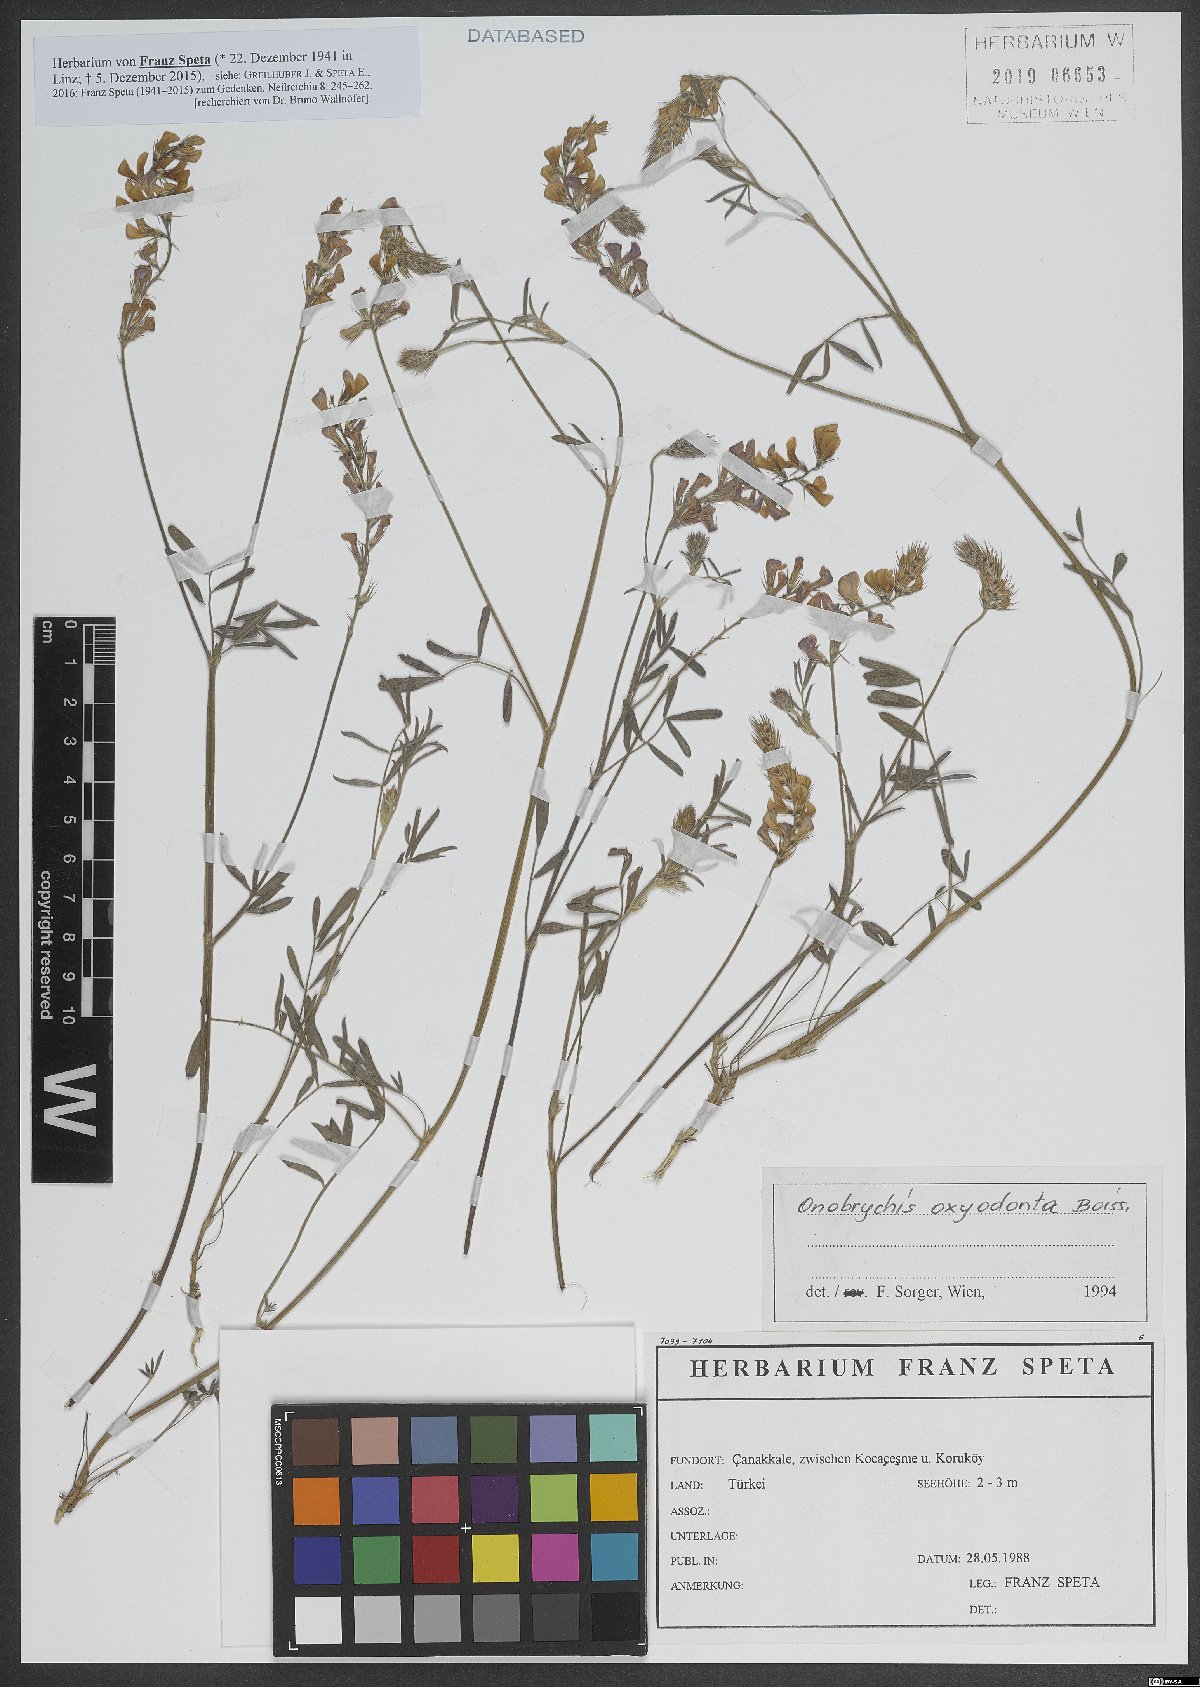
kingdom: Plantae
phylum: Tracheophyta
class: Magnoliopsida
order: Fabales
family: Fabaceae
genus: Onobrychis
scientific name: Onobrychis oxyodonta
